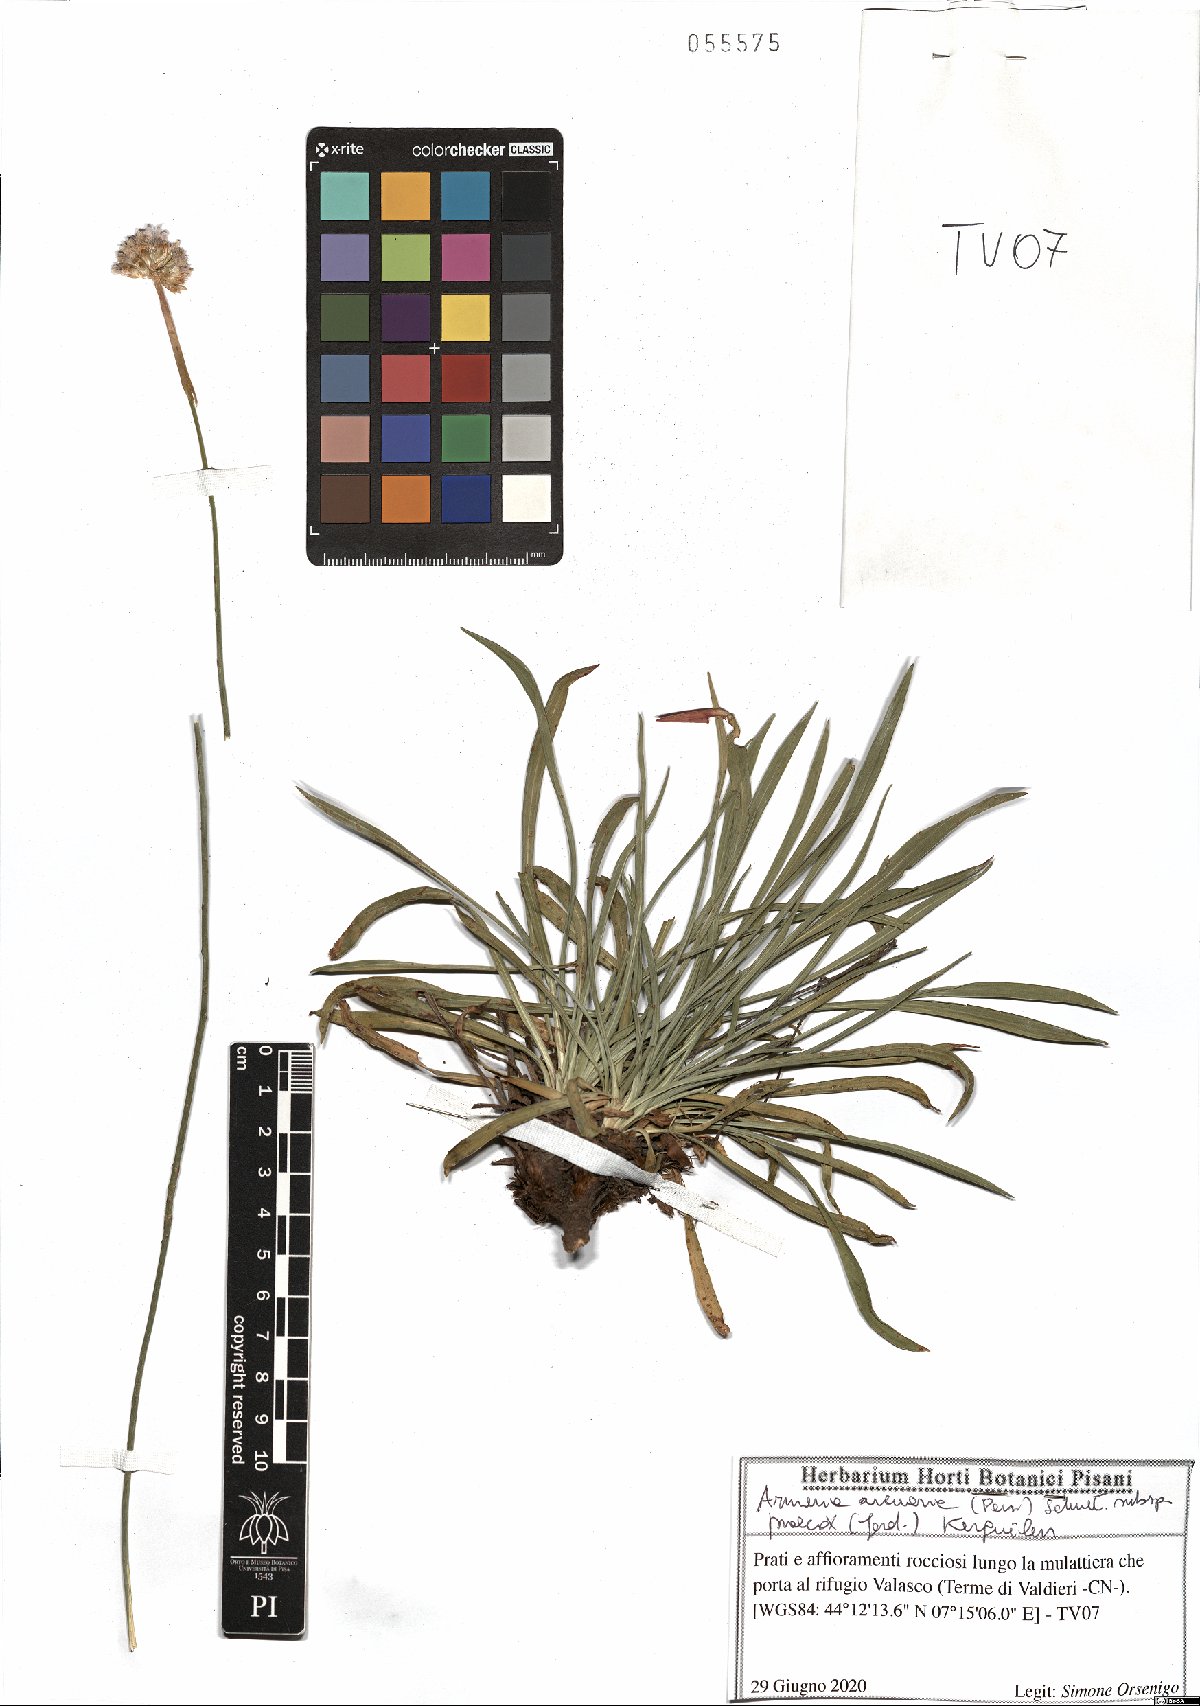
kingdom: Plantae
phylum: Tracheophyta
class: Magnoliopsida
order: Caryophyllales
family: Plumbaginaceae
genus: Armeria
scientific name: Armeria arenaria
